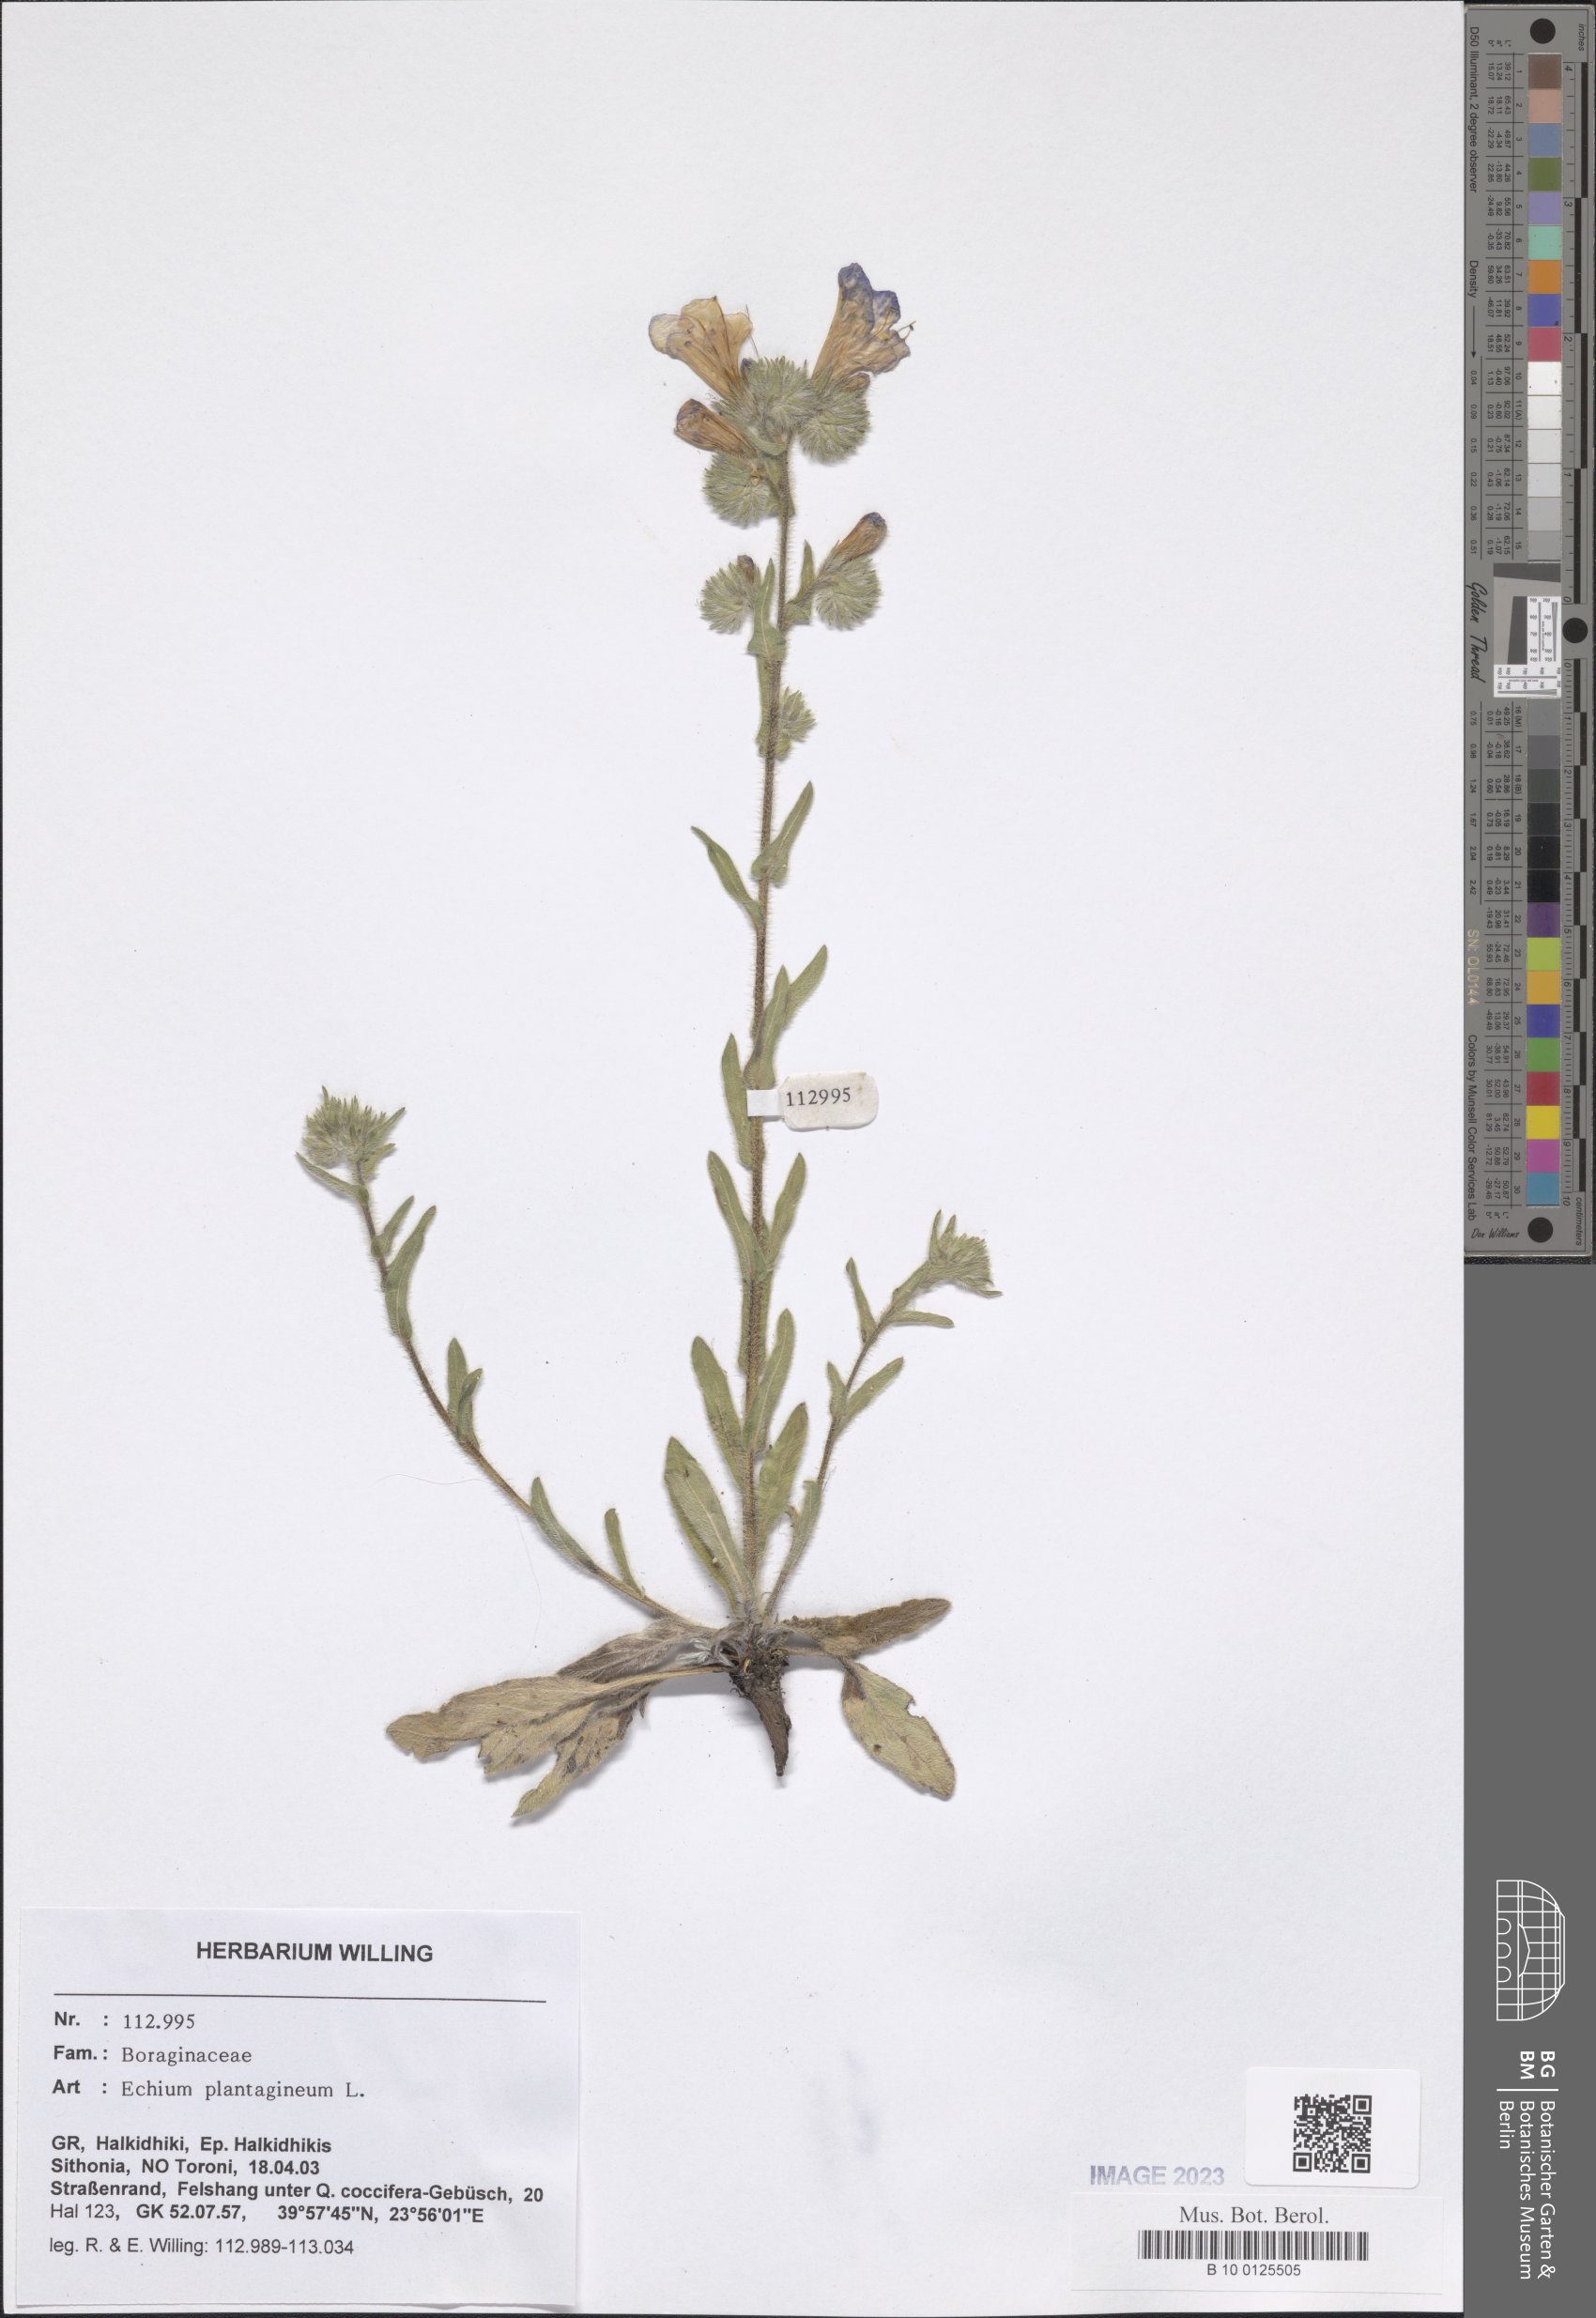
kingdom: Plantae
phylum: Tracheophyta
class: Magnoliopsida
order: Boraginales
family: Boraginaceae
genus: Echium
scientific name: Echium plantagineum
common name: Purple viper's-bugloss
